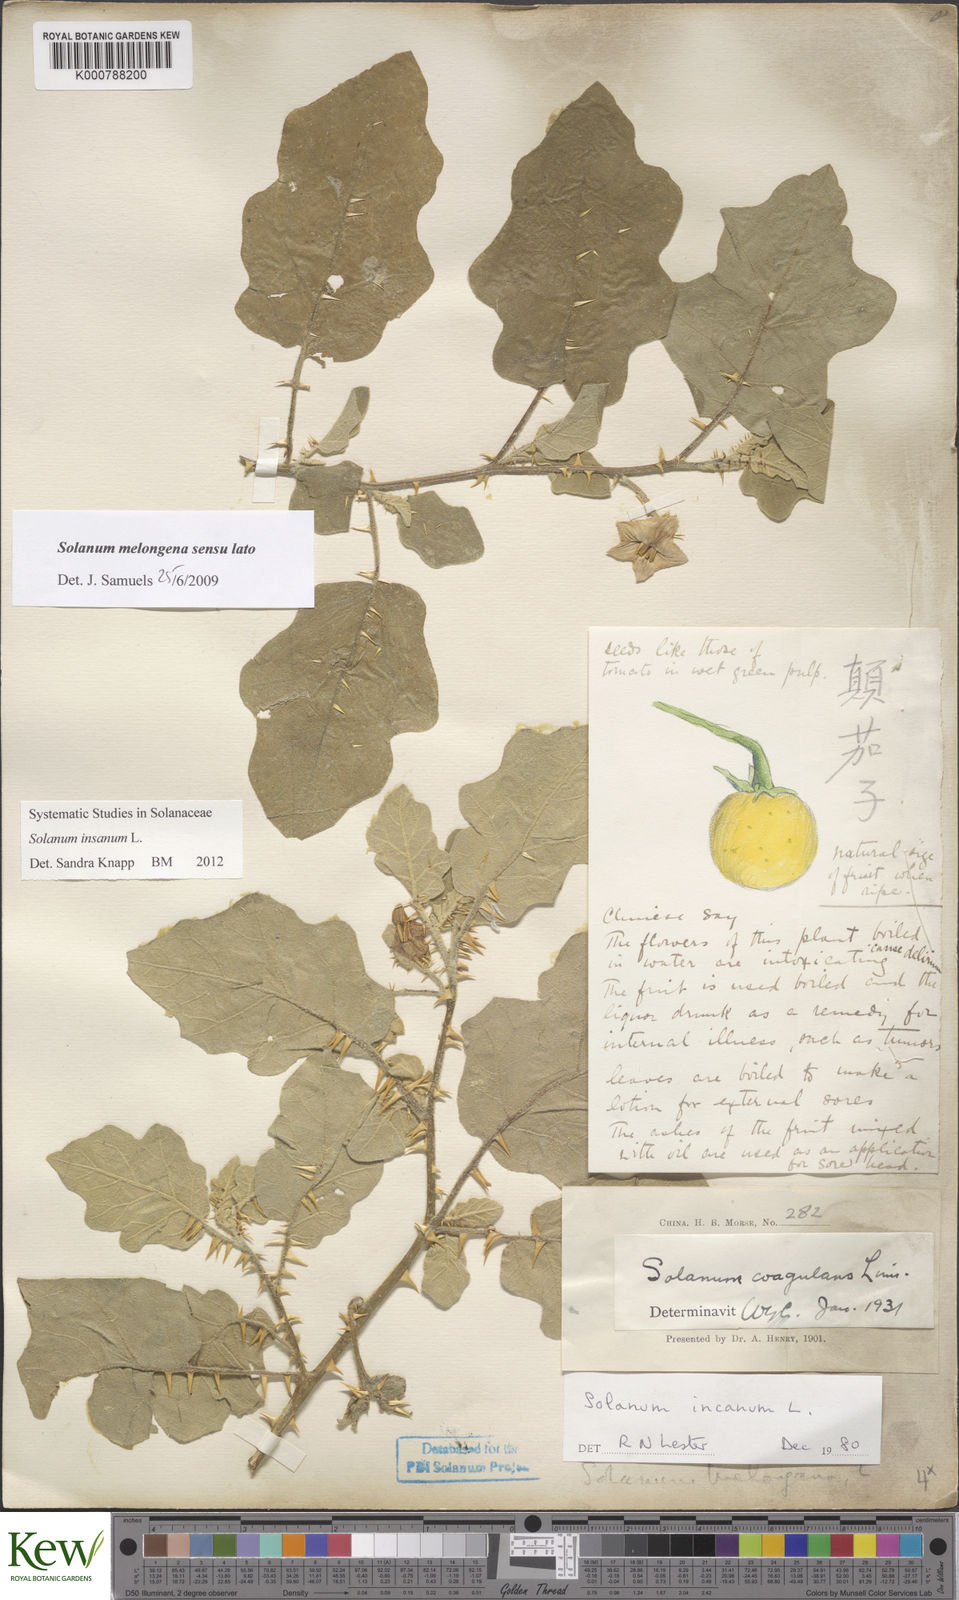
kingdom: Plantae
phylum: Tracheophyta
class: Magnoliopsida
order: Solanales
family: Solanaceae
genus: Solanum
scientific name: Solanum insanum
